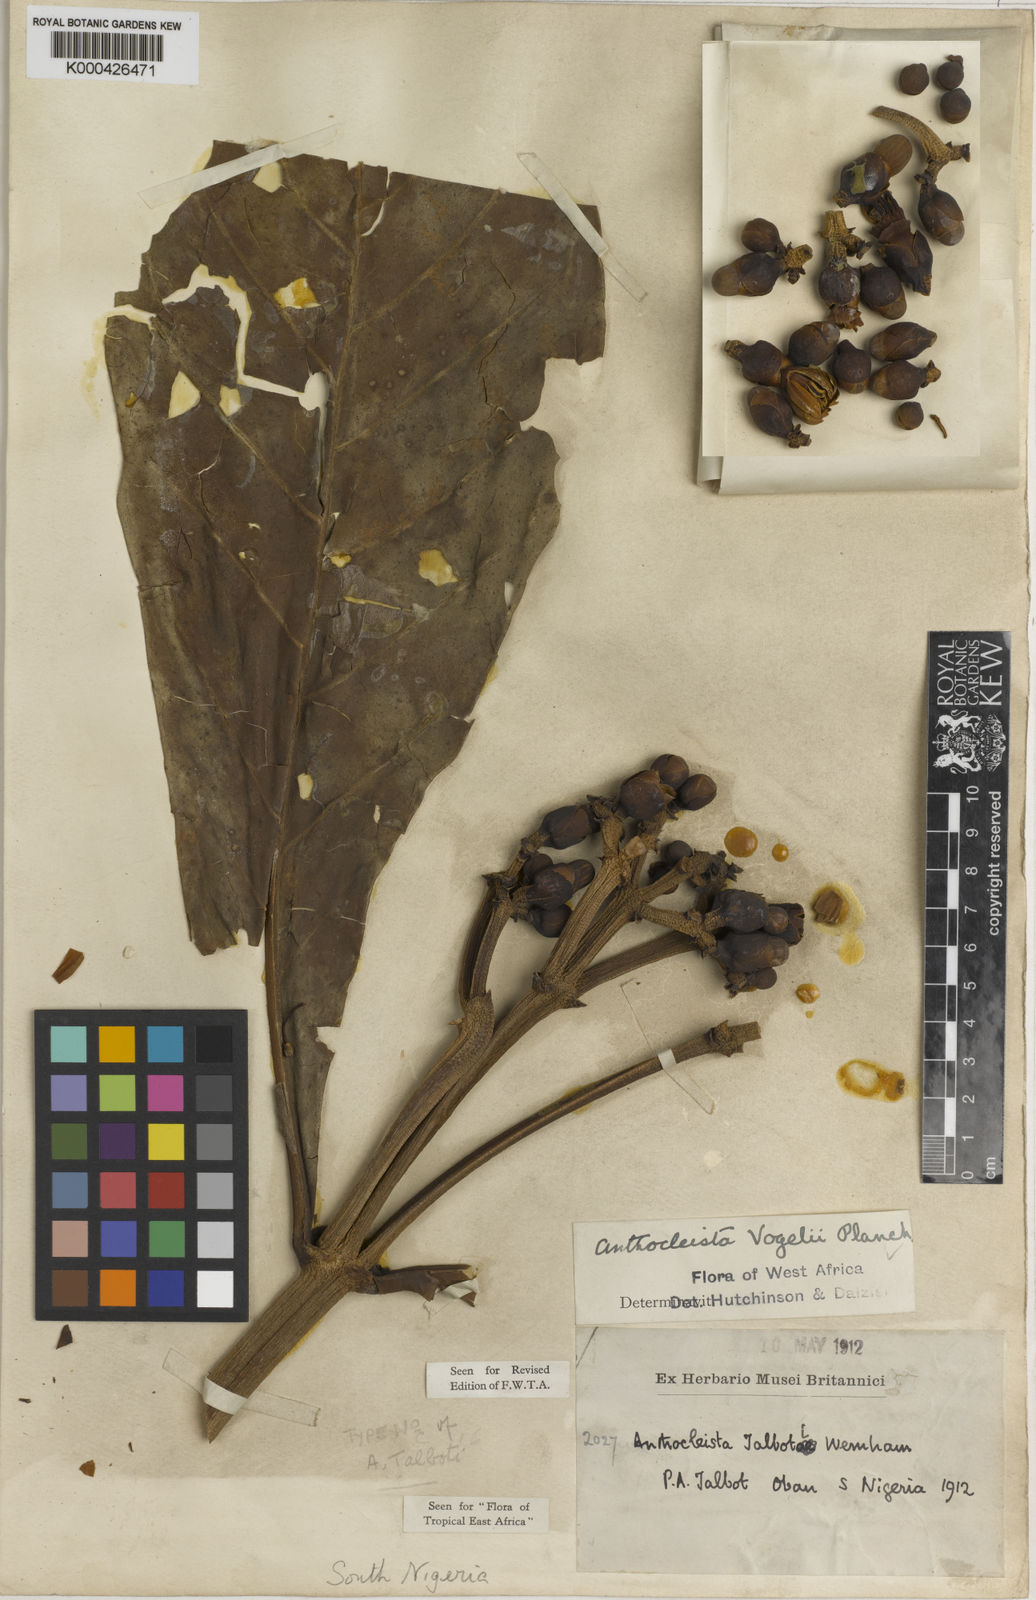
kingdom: Plantae
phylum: Tracheophyta
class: Magnoliopsida
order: Gentianales
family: Gentianaceae
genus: Anthocleista
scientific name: Anthocleista vogelii
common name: Cabbage tree
